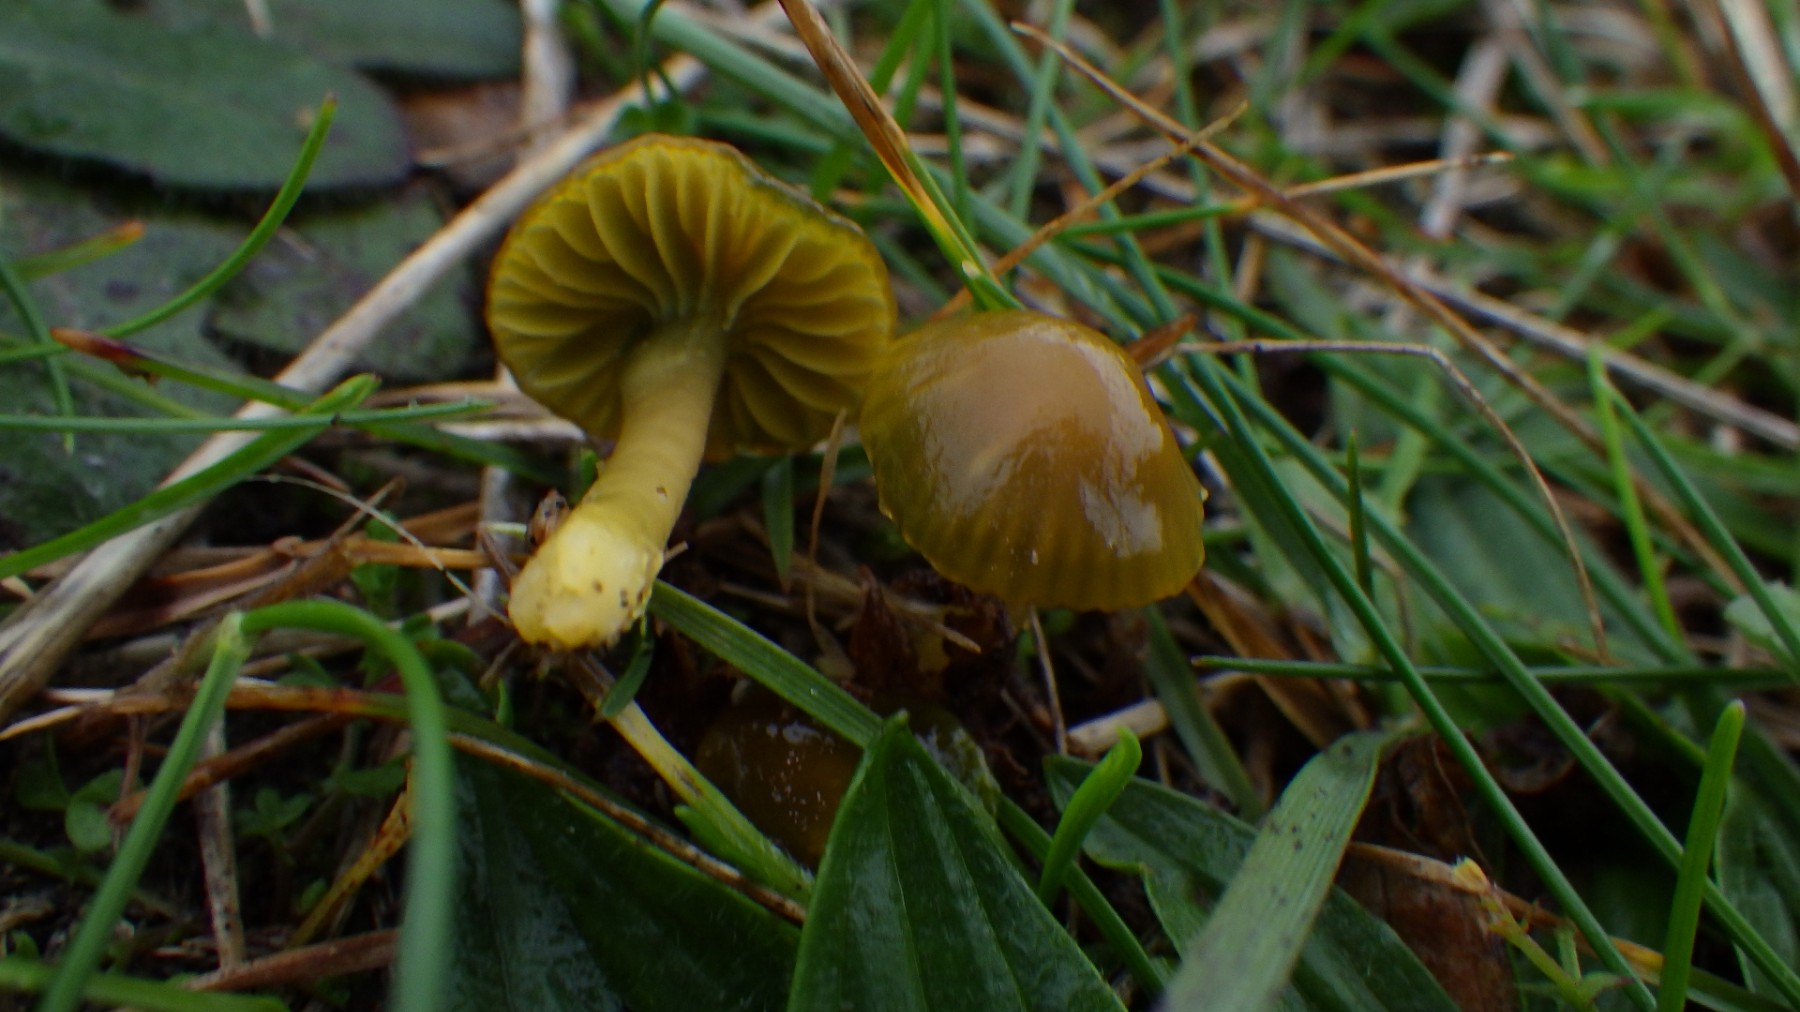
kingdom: Fungi
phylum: Basidiomycota
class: Agaricomycetes
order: Agaricales
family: Hygrophoraceae
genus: Gliophorus
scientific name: Gliophorus psittacinus
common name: papegøje-vokshat
